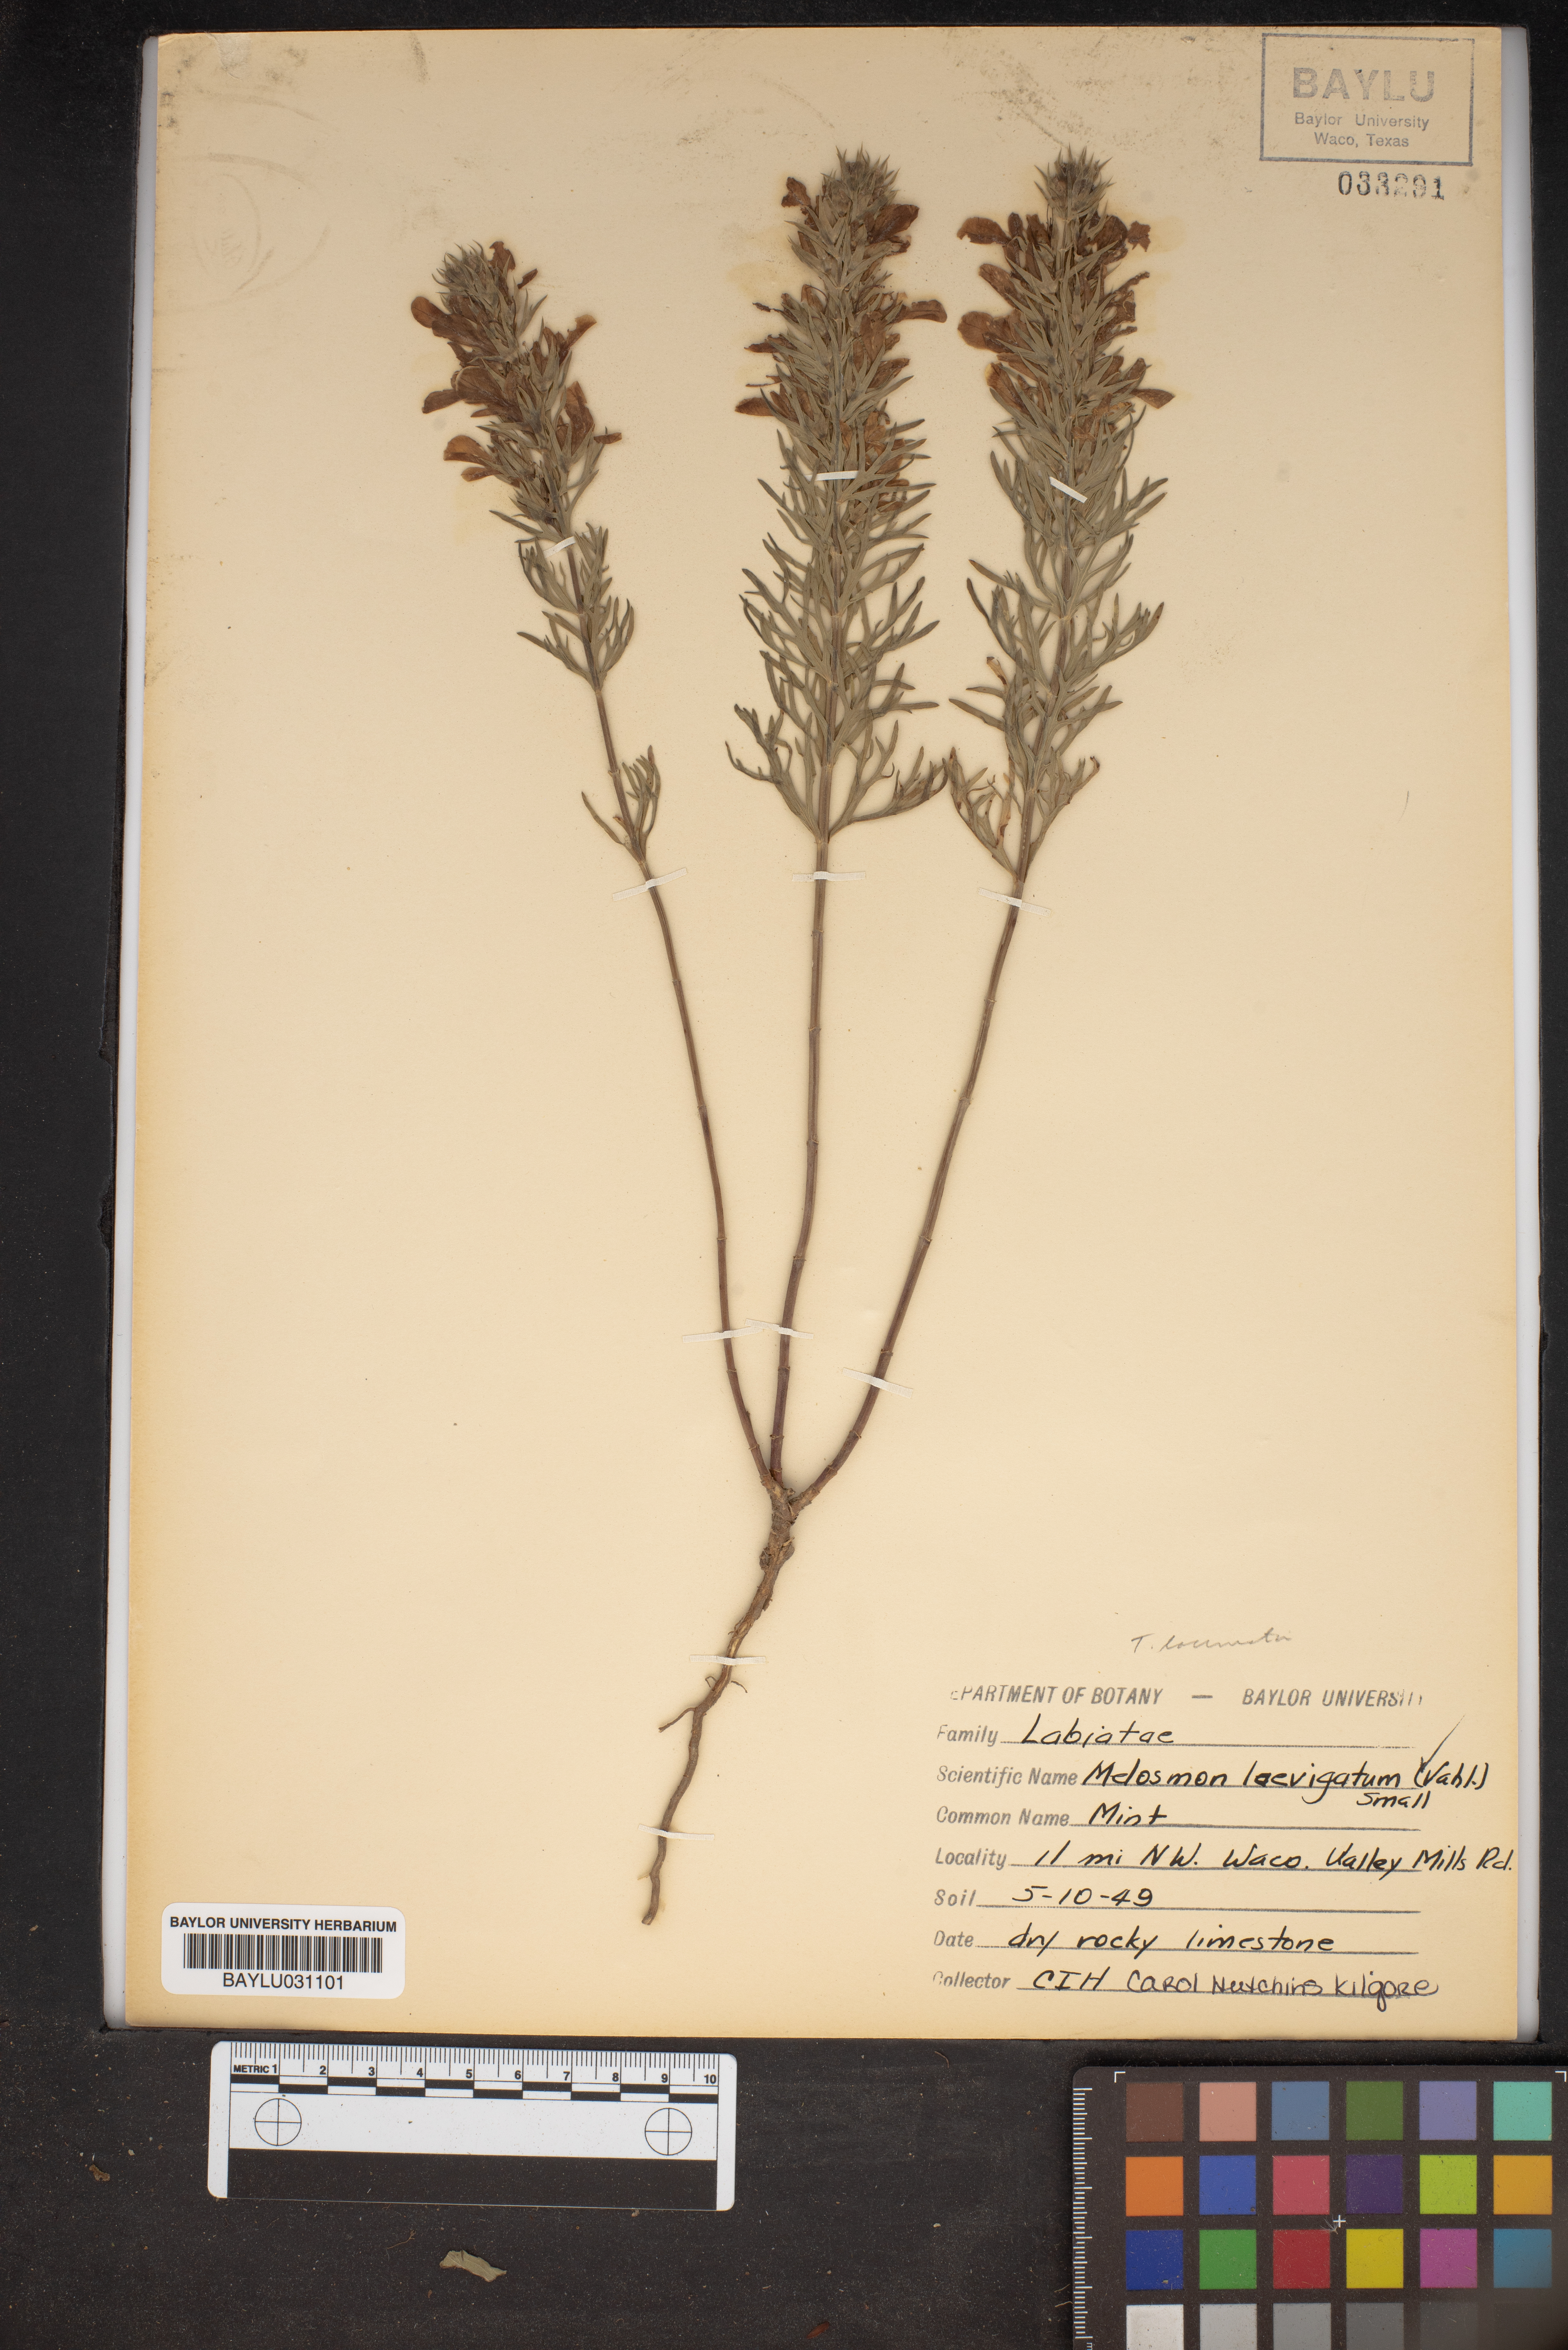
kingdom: Plantae
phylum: Tracheophyta
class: Magnoliopsida
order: Lamiales
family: Lamiaceae
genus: Teucrium
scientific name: Teucrium cubense
